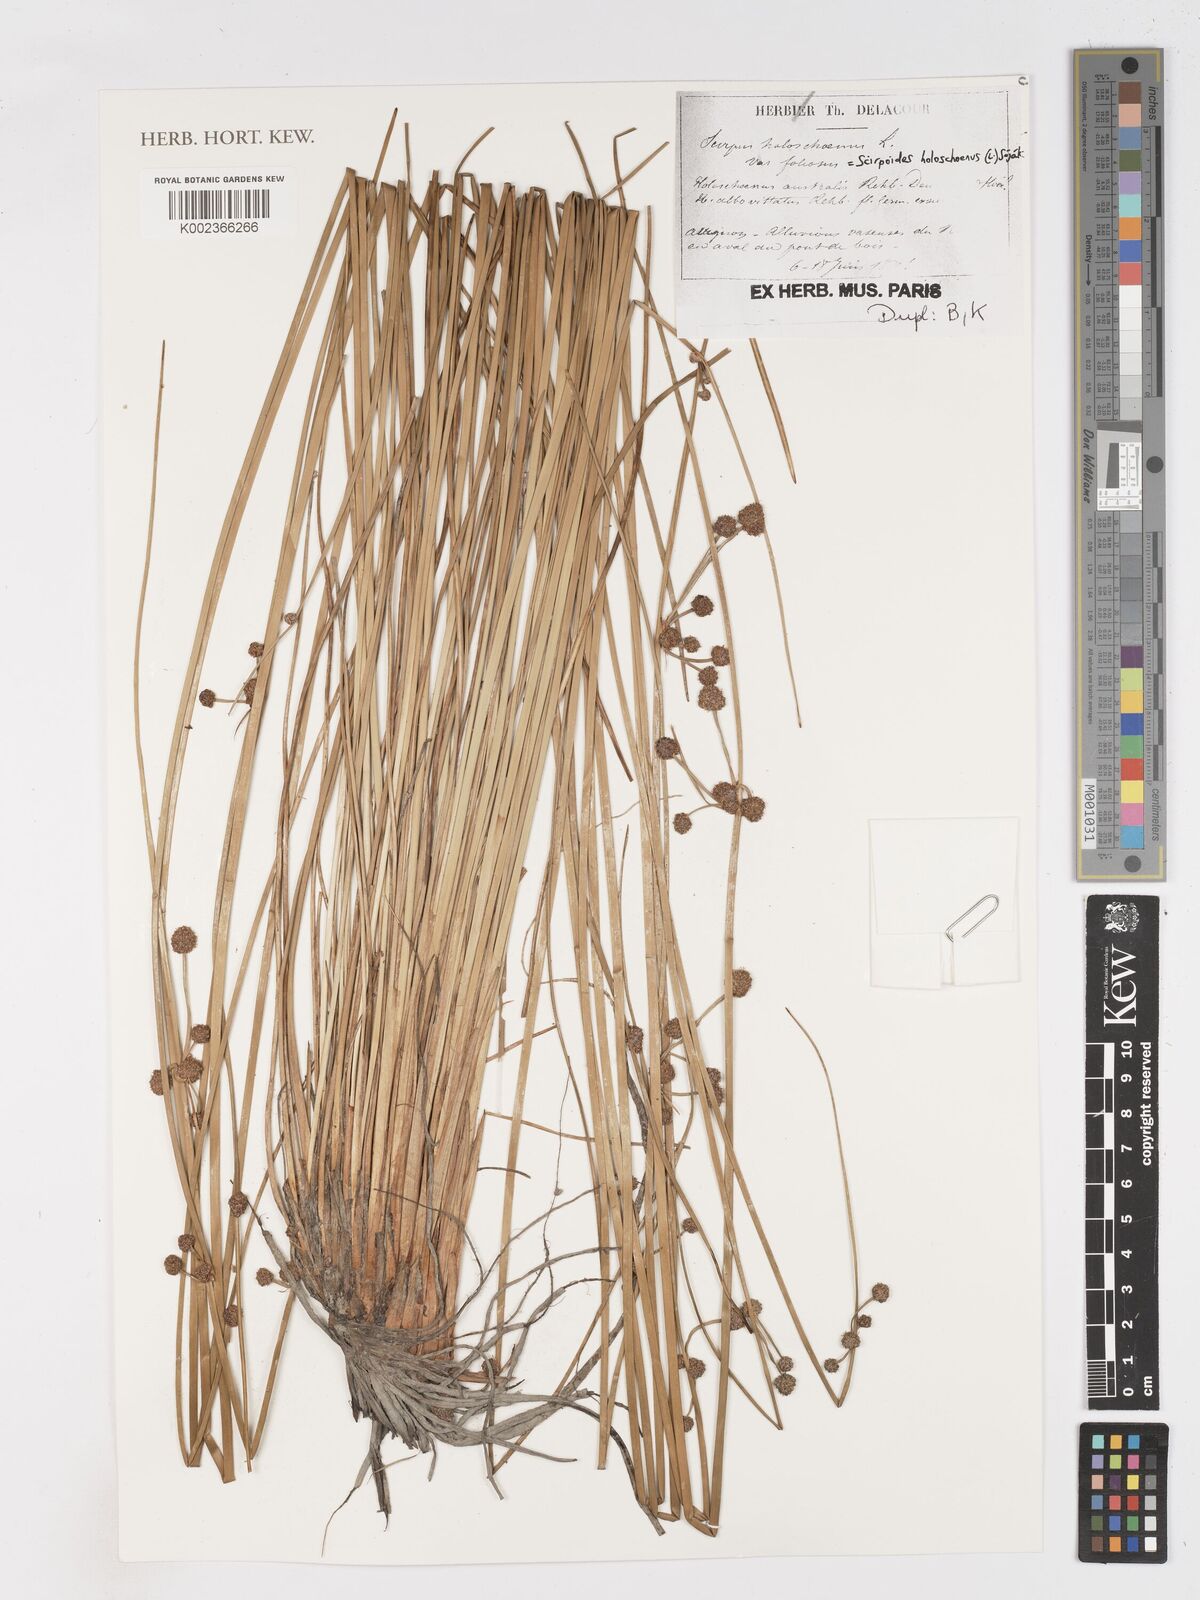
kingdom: Plantae
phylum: Tracheophyta
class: Liliopsida
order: Poales
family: Cyperaceae
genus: Scirpoides
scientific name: Scirpoides holoschoenus
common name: Round-headed club-rush
